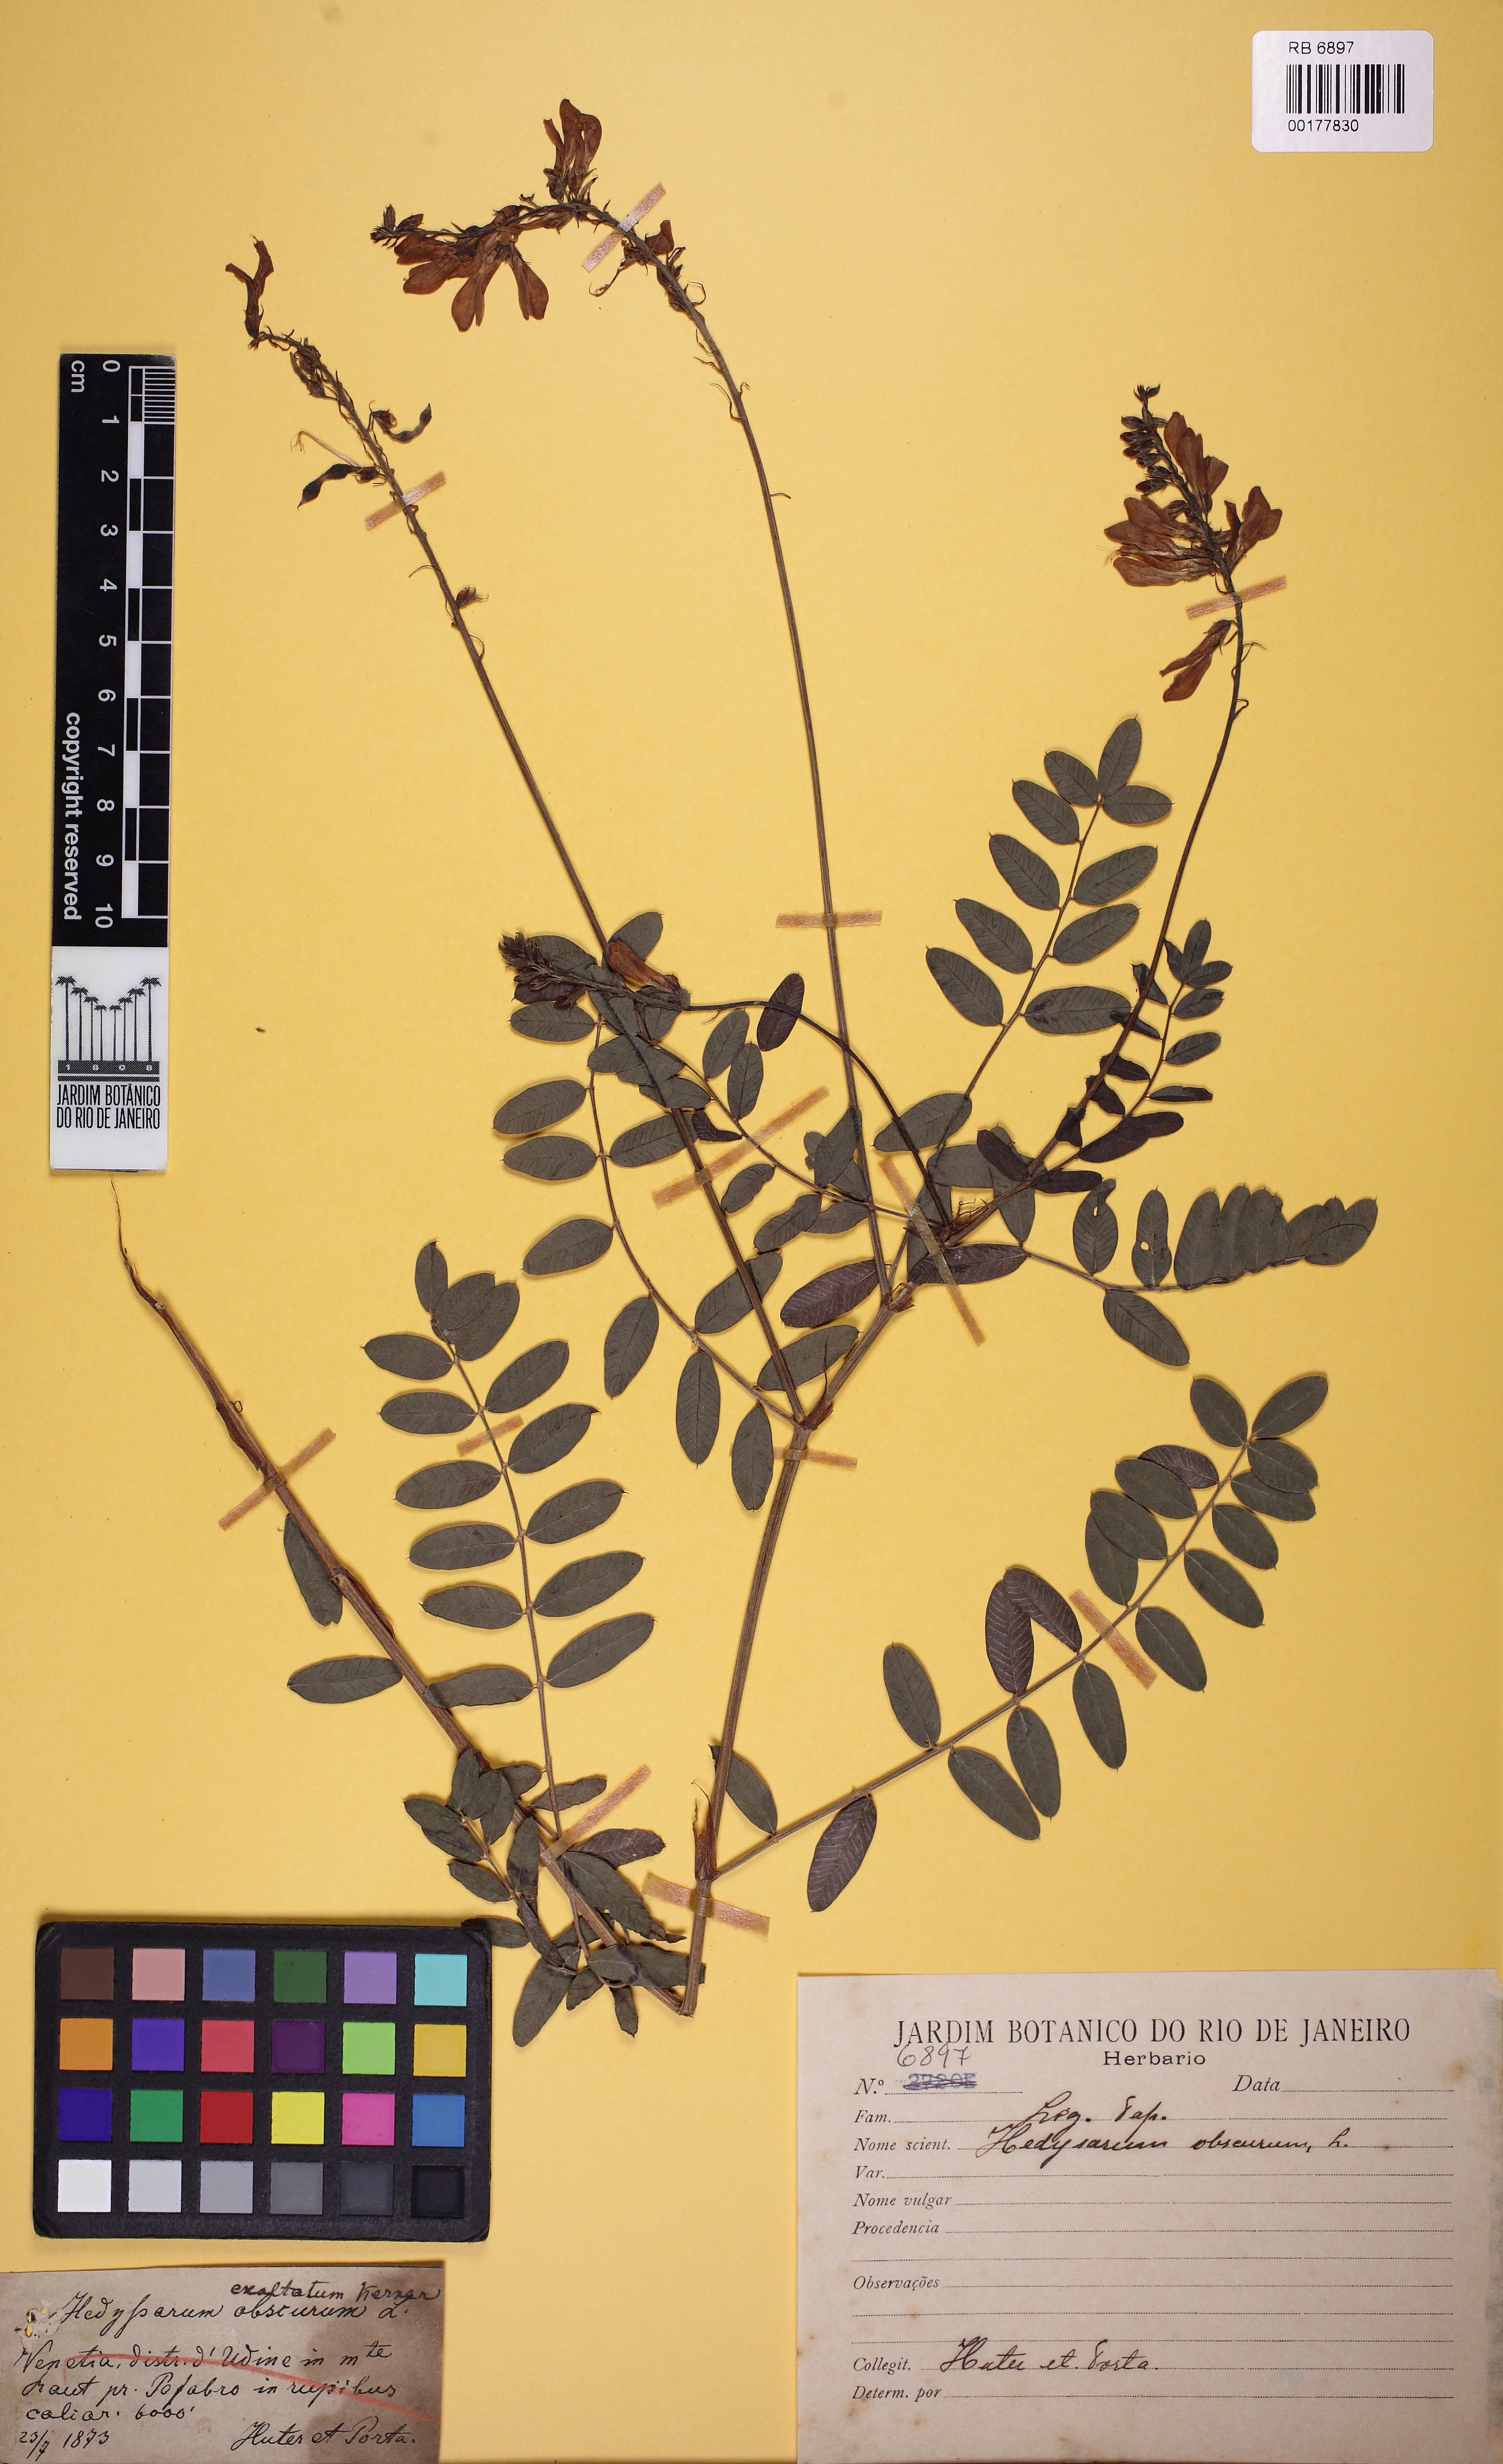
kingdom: Plantae
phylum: Tracheophyta
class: Magnoliopsida
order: Fabales
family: Fabaceae
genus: Hedysarum
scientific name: Hedysarum hedysaroides
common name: Alpine french-honeysuckle
